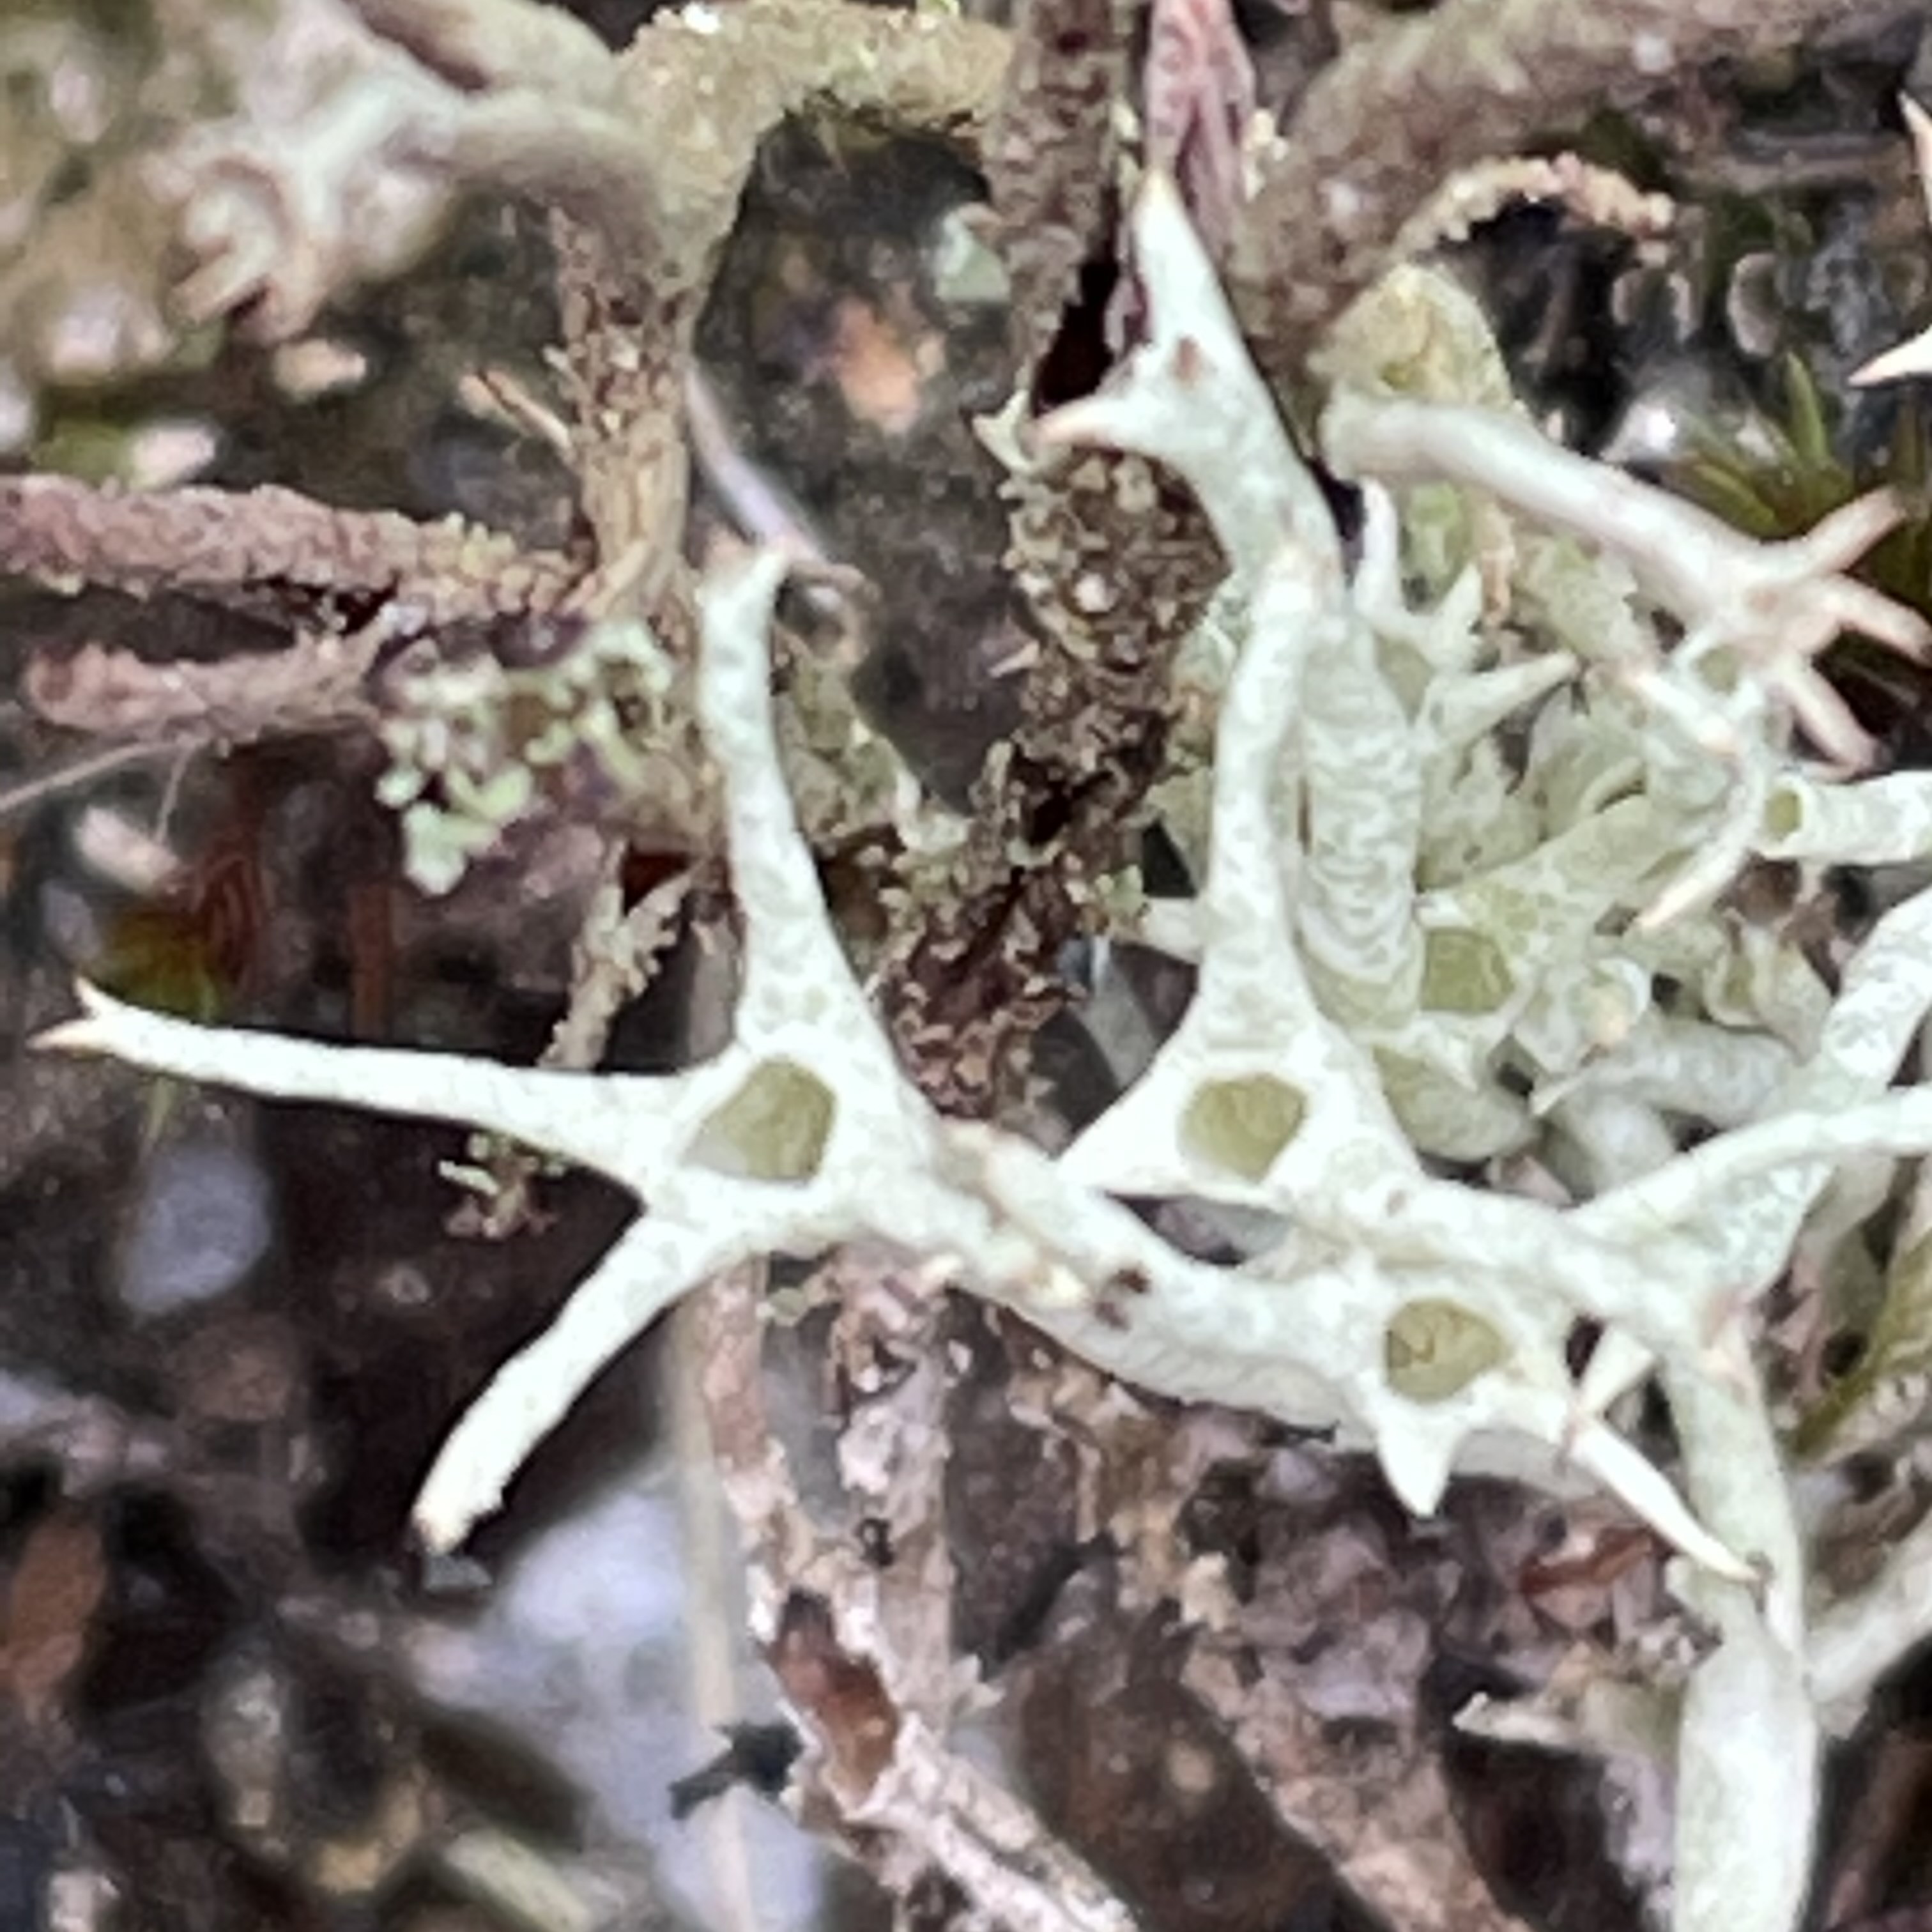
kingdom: Fungi
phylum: Ascomycota
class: Lecanoromycetes
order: Lecanorales
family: Cladoniaceae
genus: Cladonia
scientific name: Cladonia uncialis
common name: pigget bægerlav
